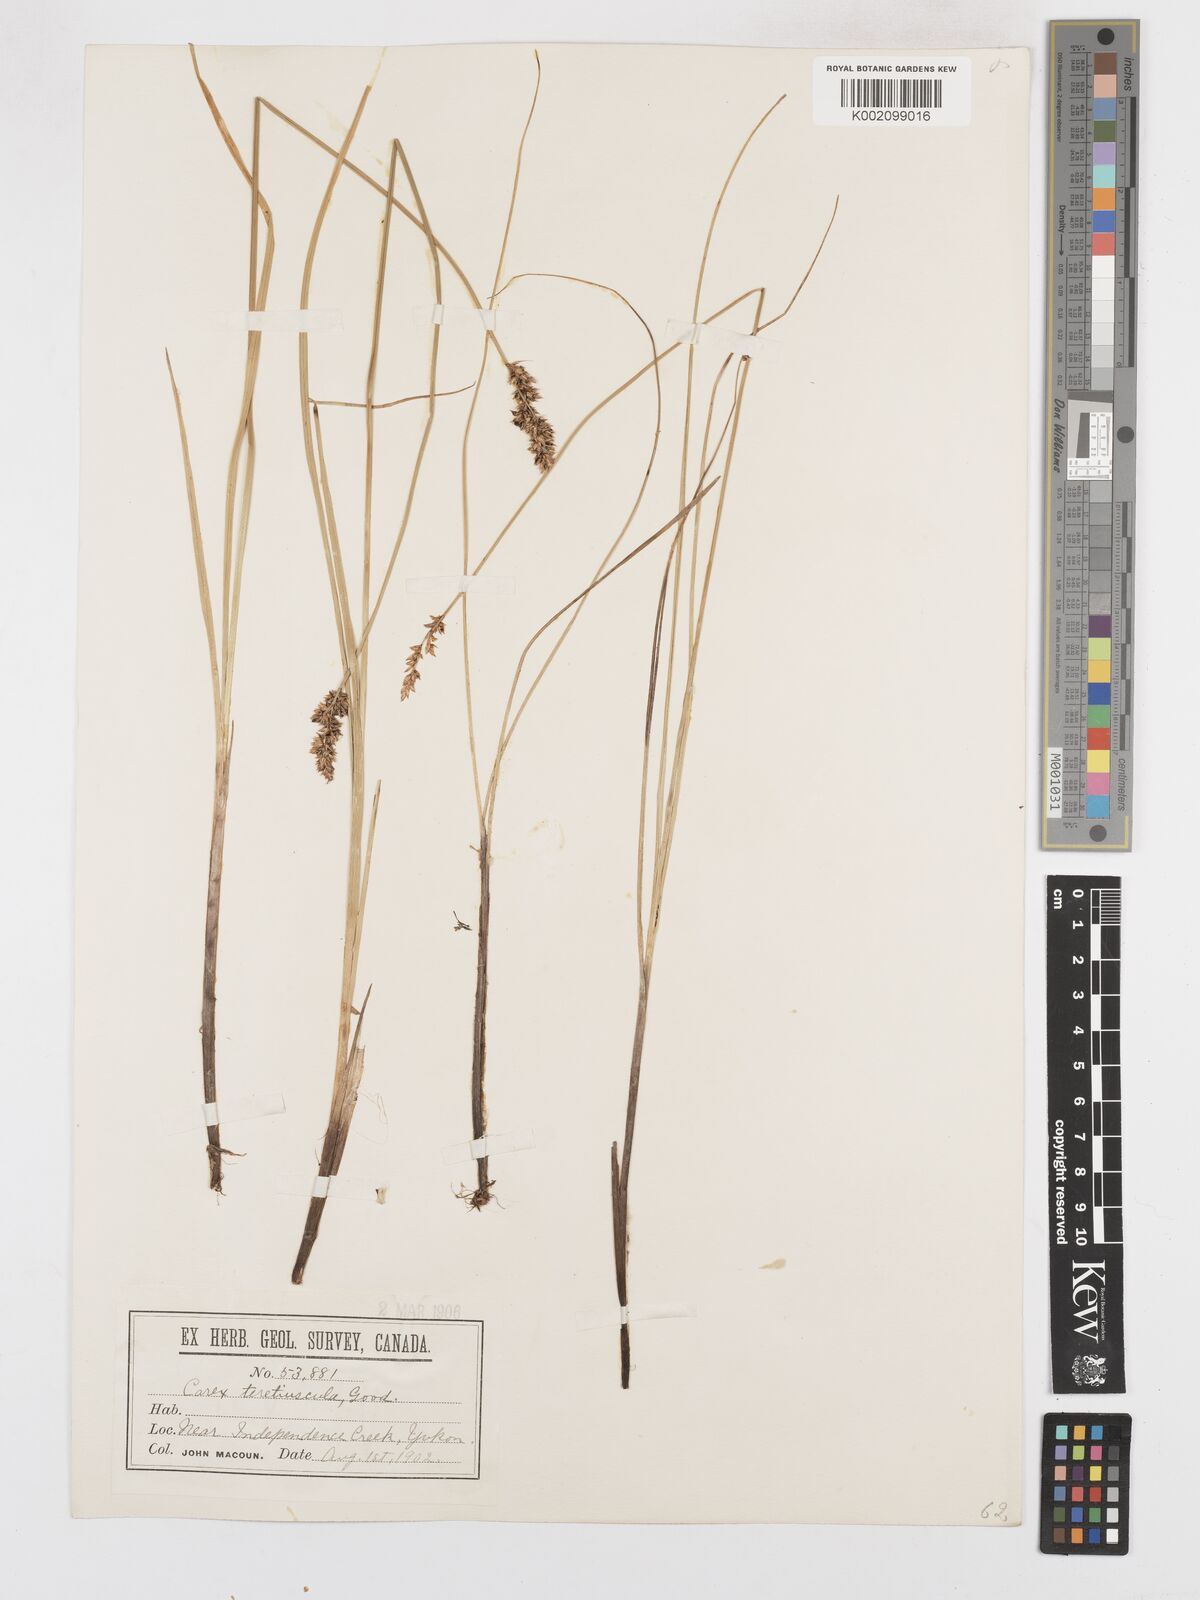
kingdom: Plantae
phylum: Tracheophyta
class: Liliopsida
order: Poales
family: Cyperaceae
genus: Carex
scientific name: Carex diandra
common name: Lesser tussock-sedge
